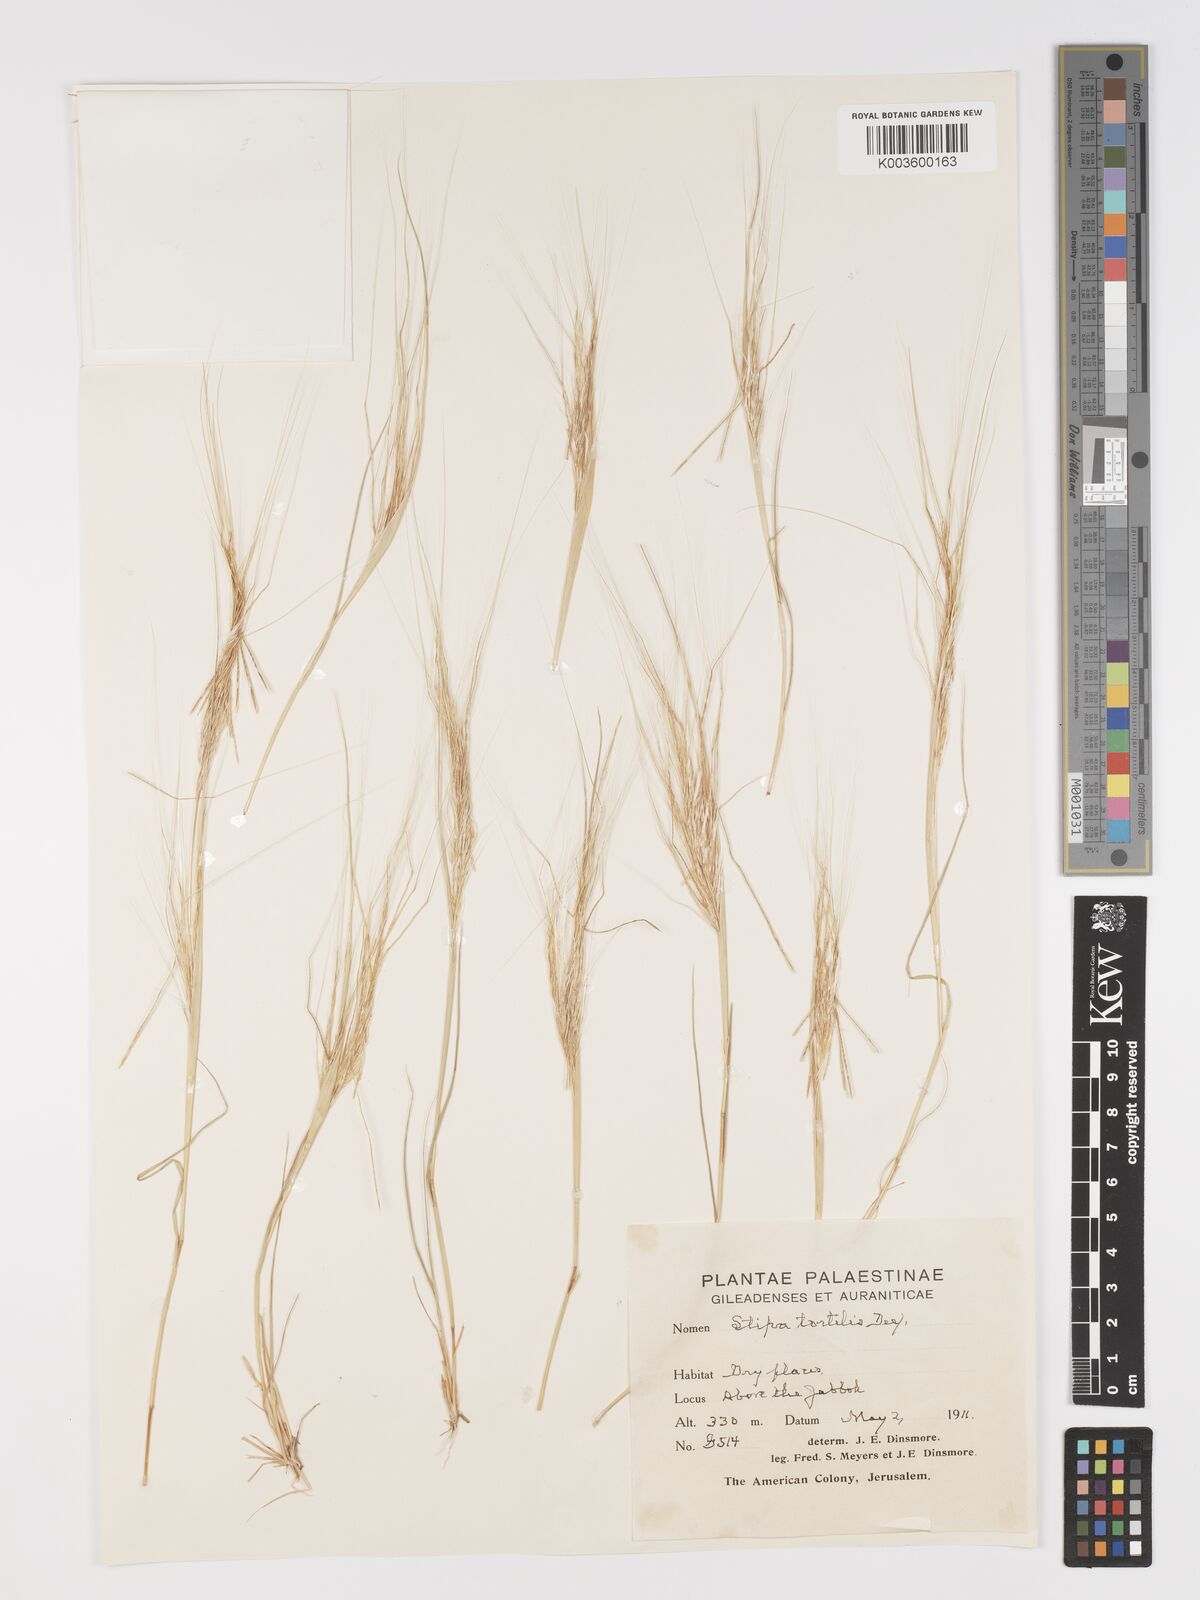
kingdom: Plantae
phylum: Tracheophyta
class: Liliopsida
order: Poales
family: Poaceae
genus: Stipellula
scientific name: Stipellula capensis
